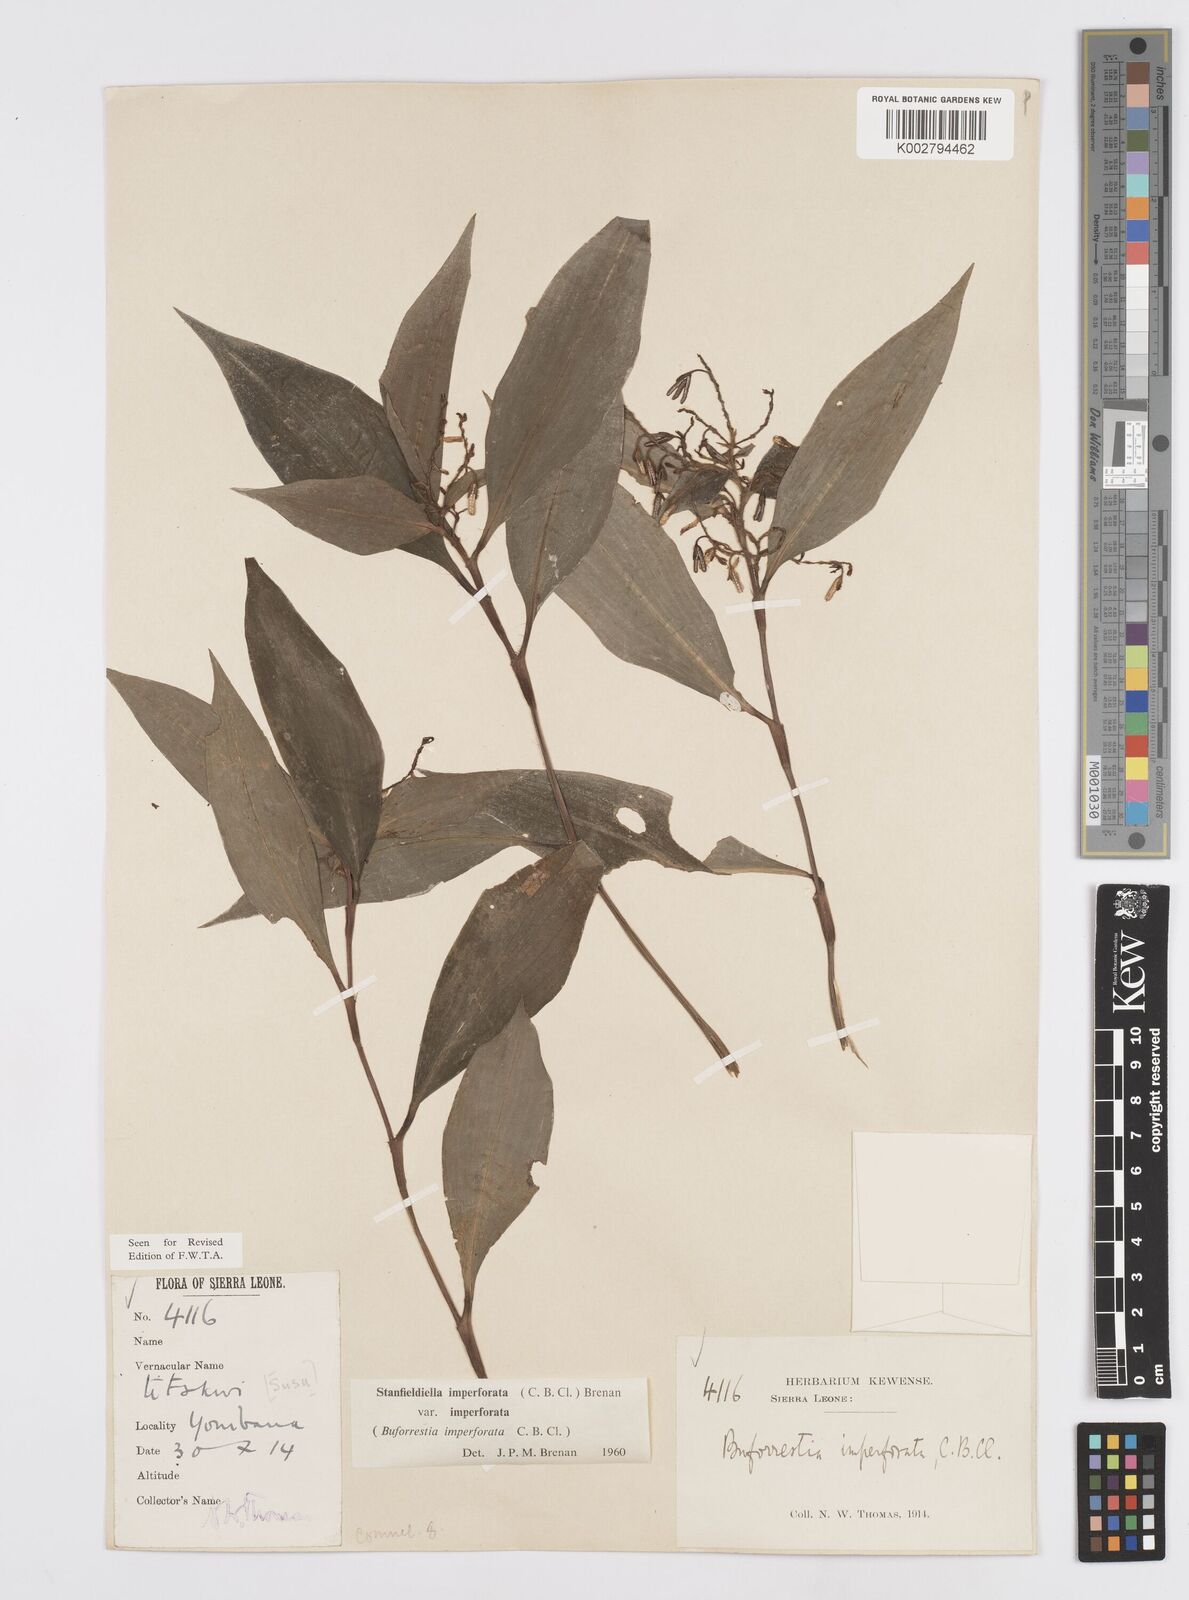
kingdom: Plantae
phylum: Tracheophyta
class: Liliopsida
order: Commelinales
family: Commelinaceae
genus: Stanfieldiella
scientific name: Stanfieldiella imperforata
